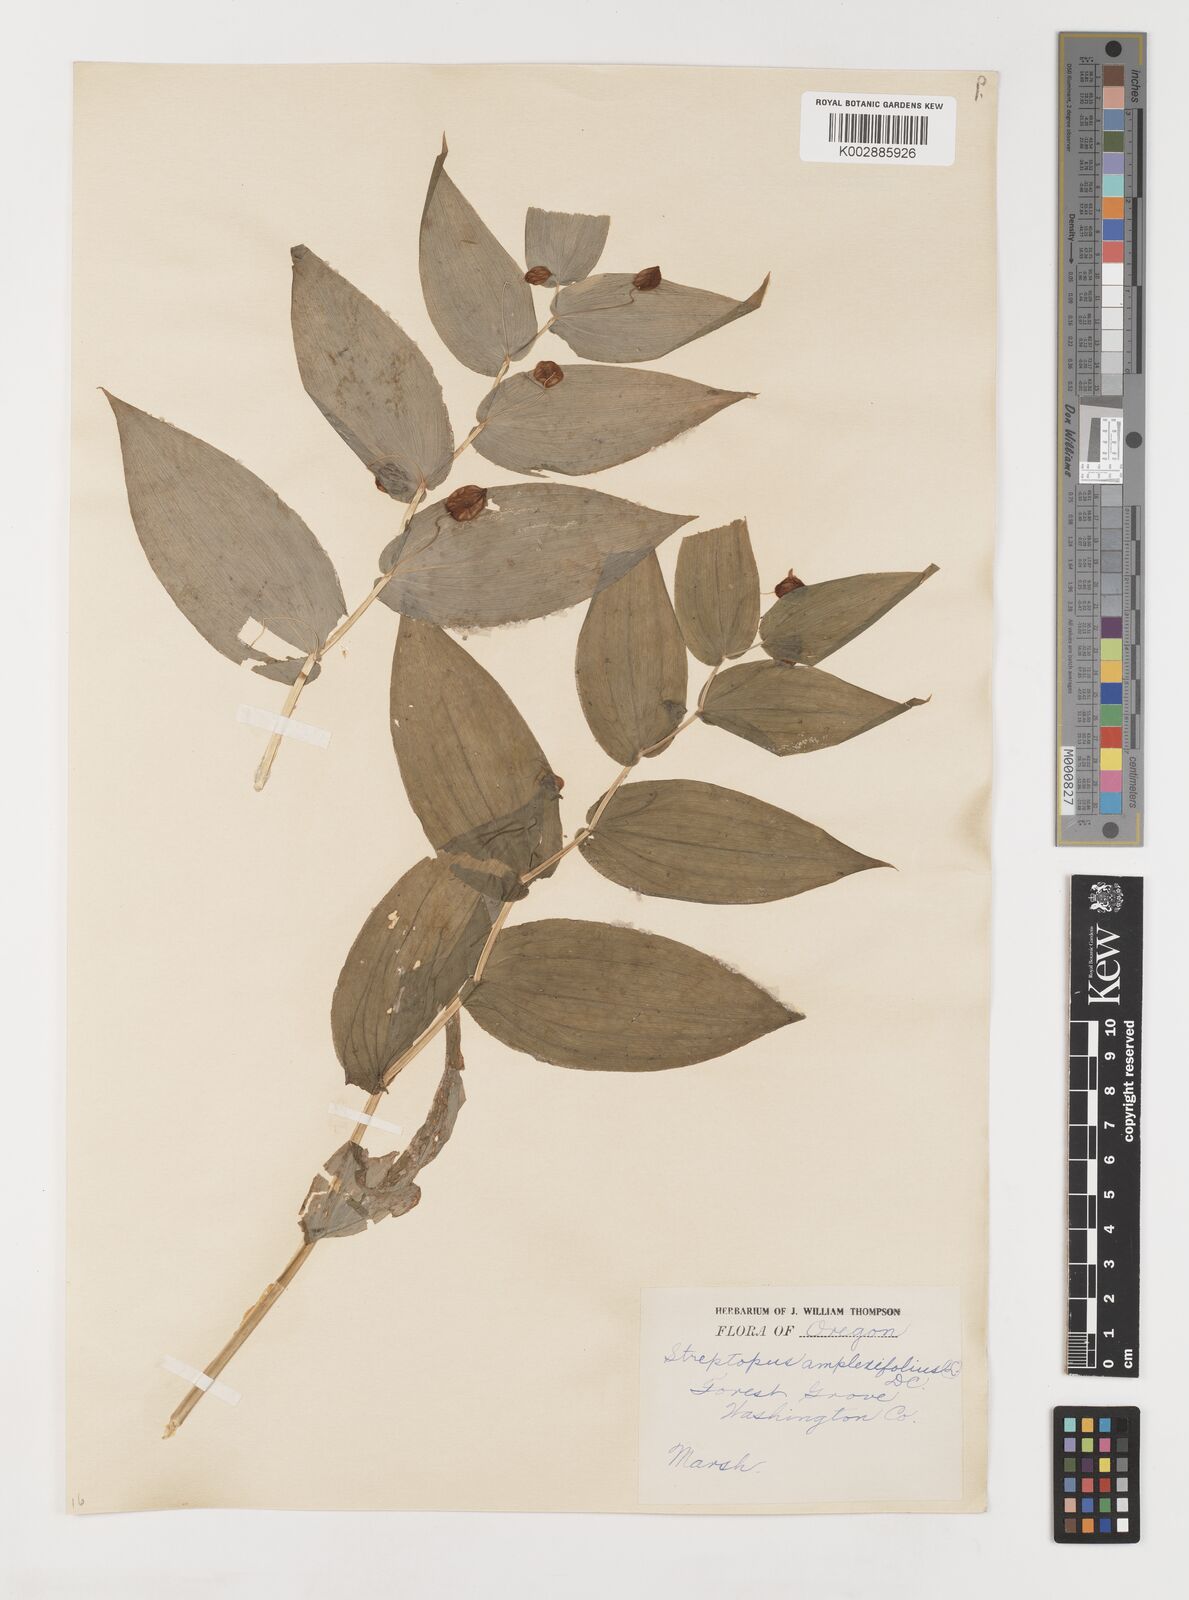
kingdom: Plantae
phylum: Tracheophyta
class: Liliopsida
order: Liliales
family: Liliaceae
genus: Streptopus
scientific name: Streptopus
